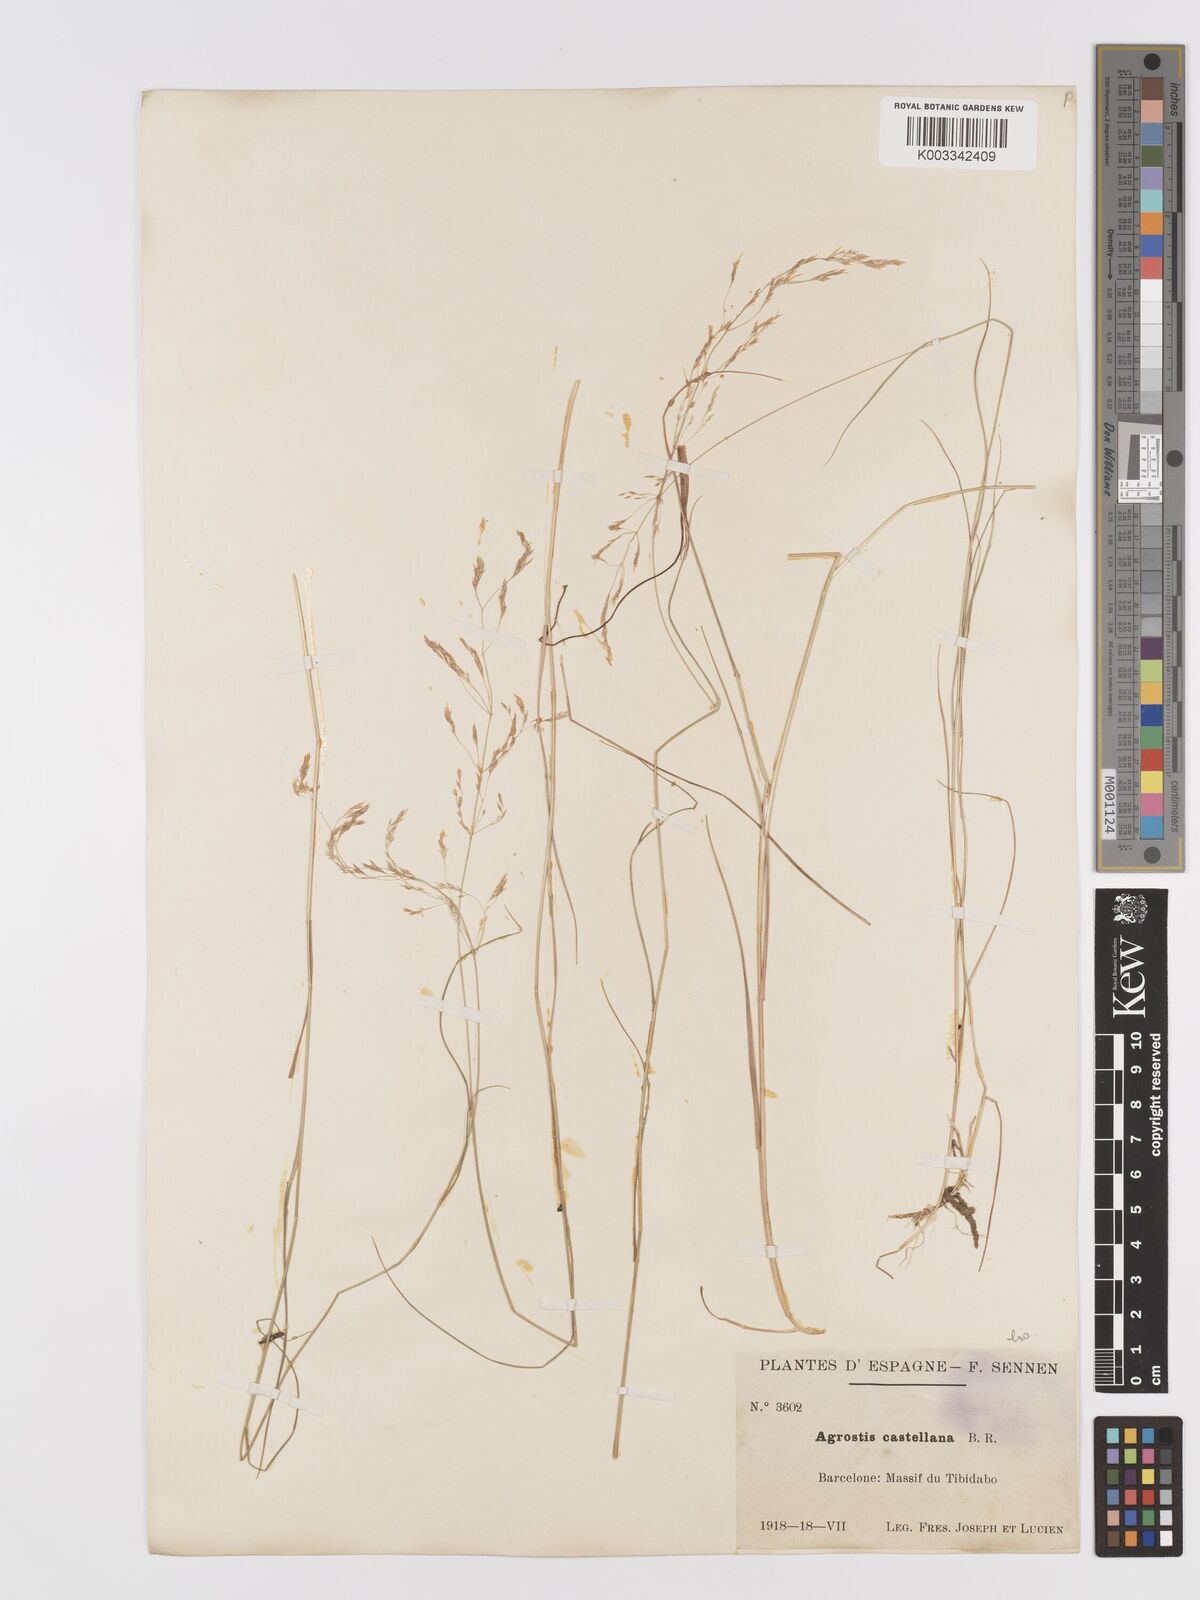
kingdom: Plantae
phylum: Tracheophyta
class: Liliopsida
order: Poales
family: Poaceae
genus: Agrostis
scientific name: Agrostis castellana
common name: Highland bent
